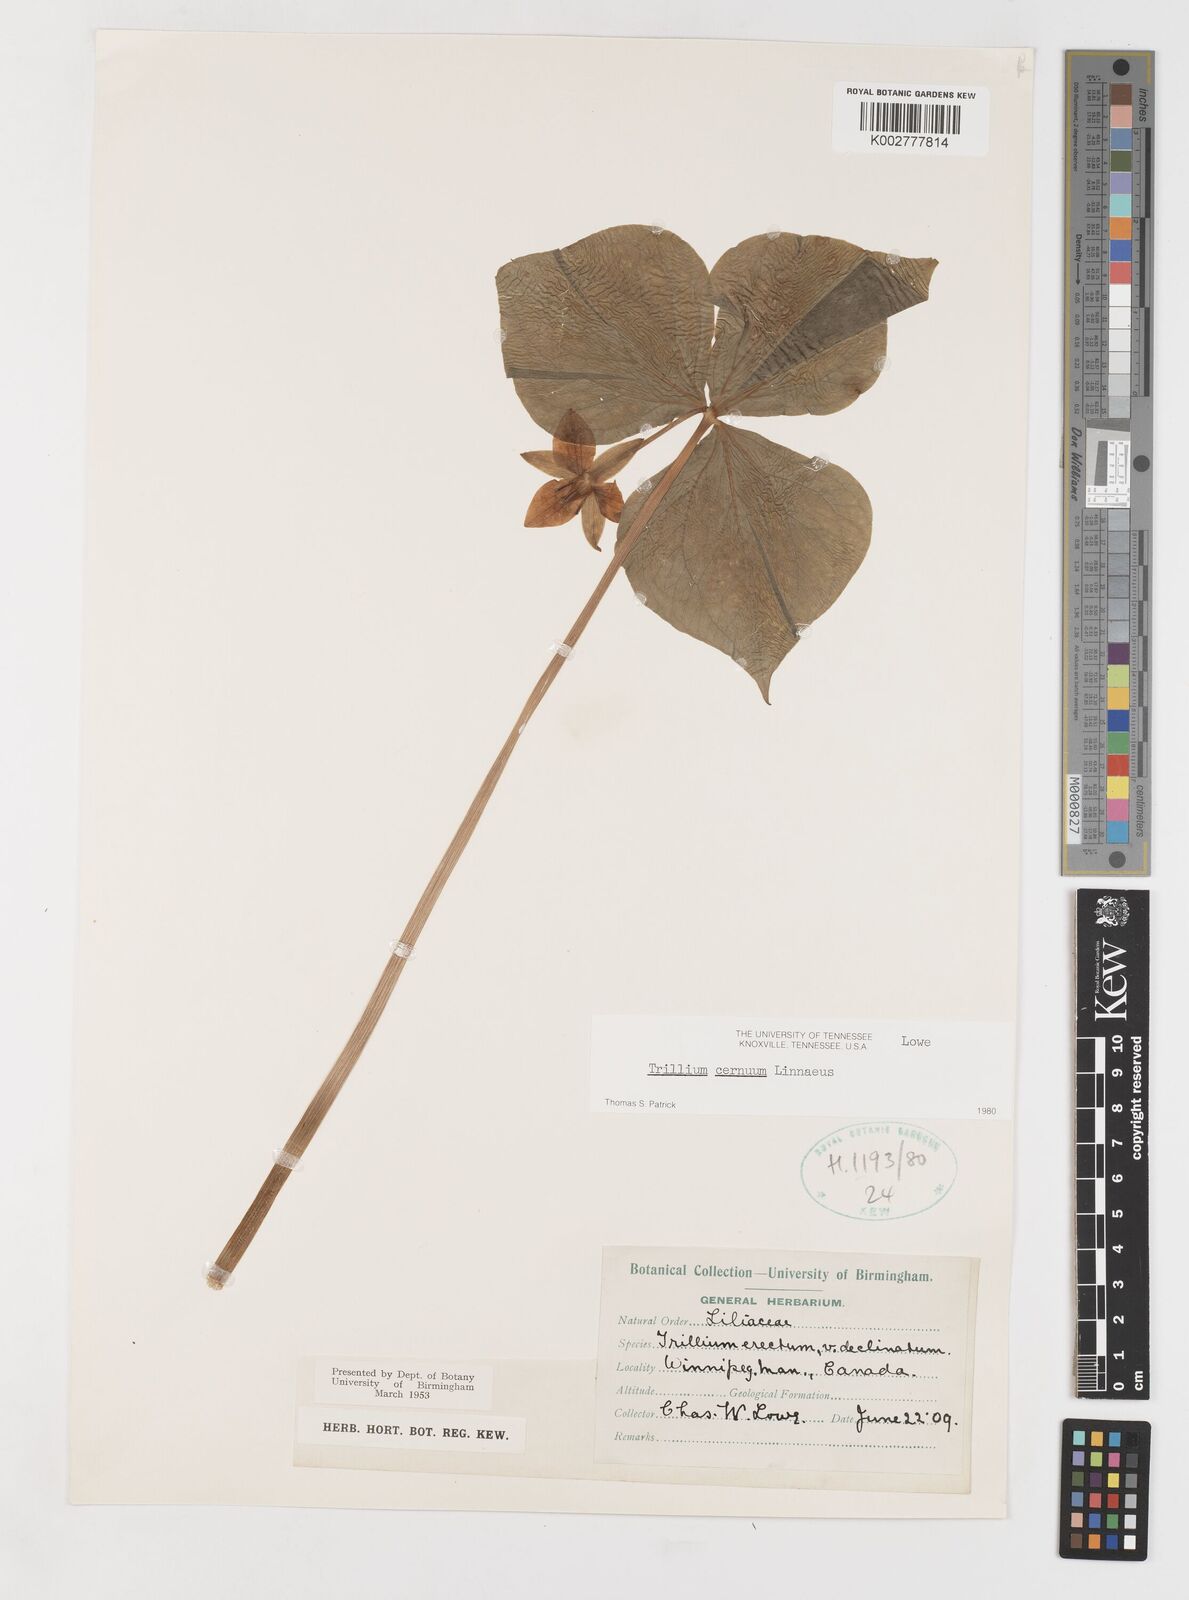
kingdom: Plantae
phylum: Tracheophyta
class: Liliopsida
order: Liliales
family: Melanthiaceae
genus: Trillium
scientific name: Trillium cernuum
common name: Nodding trillium
